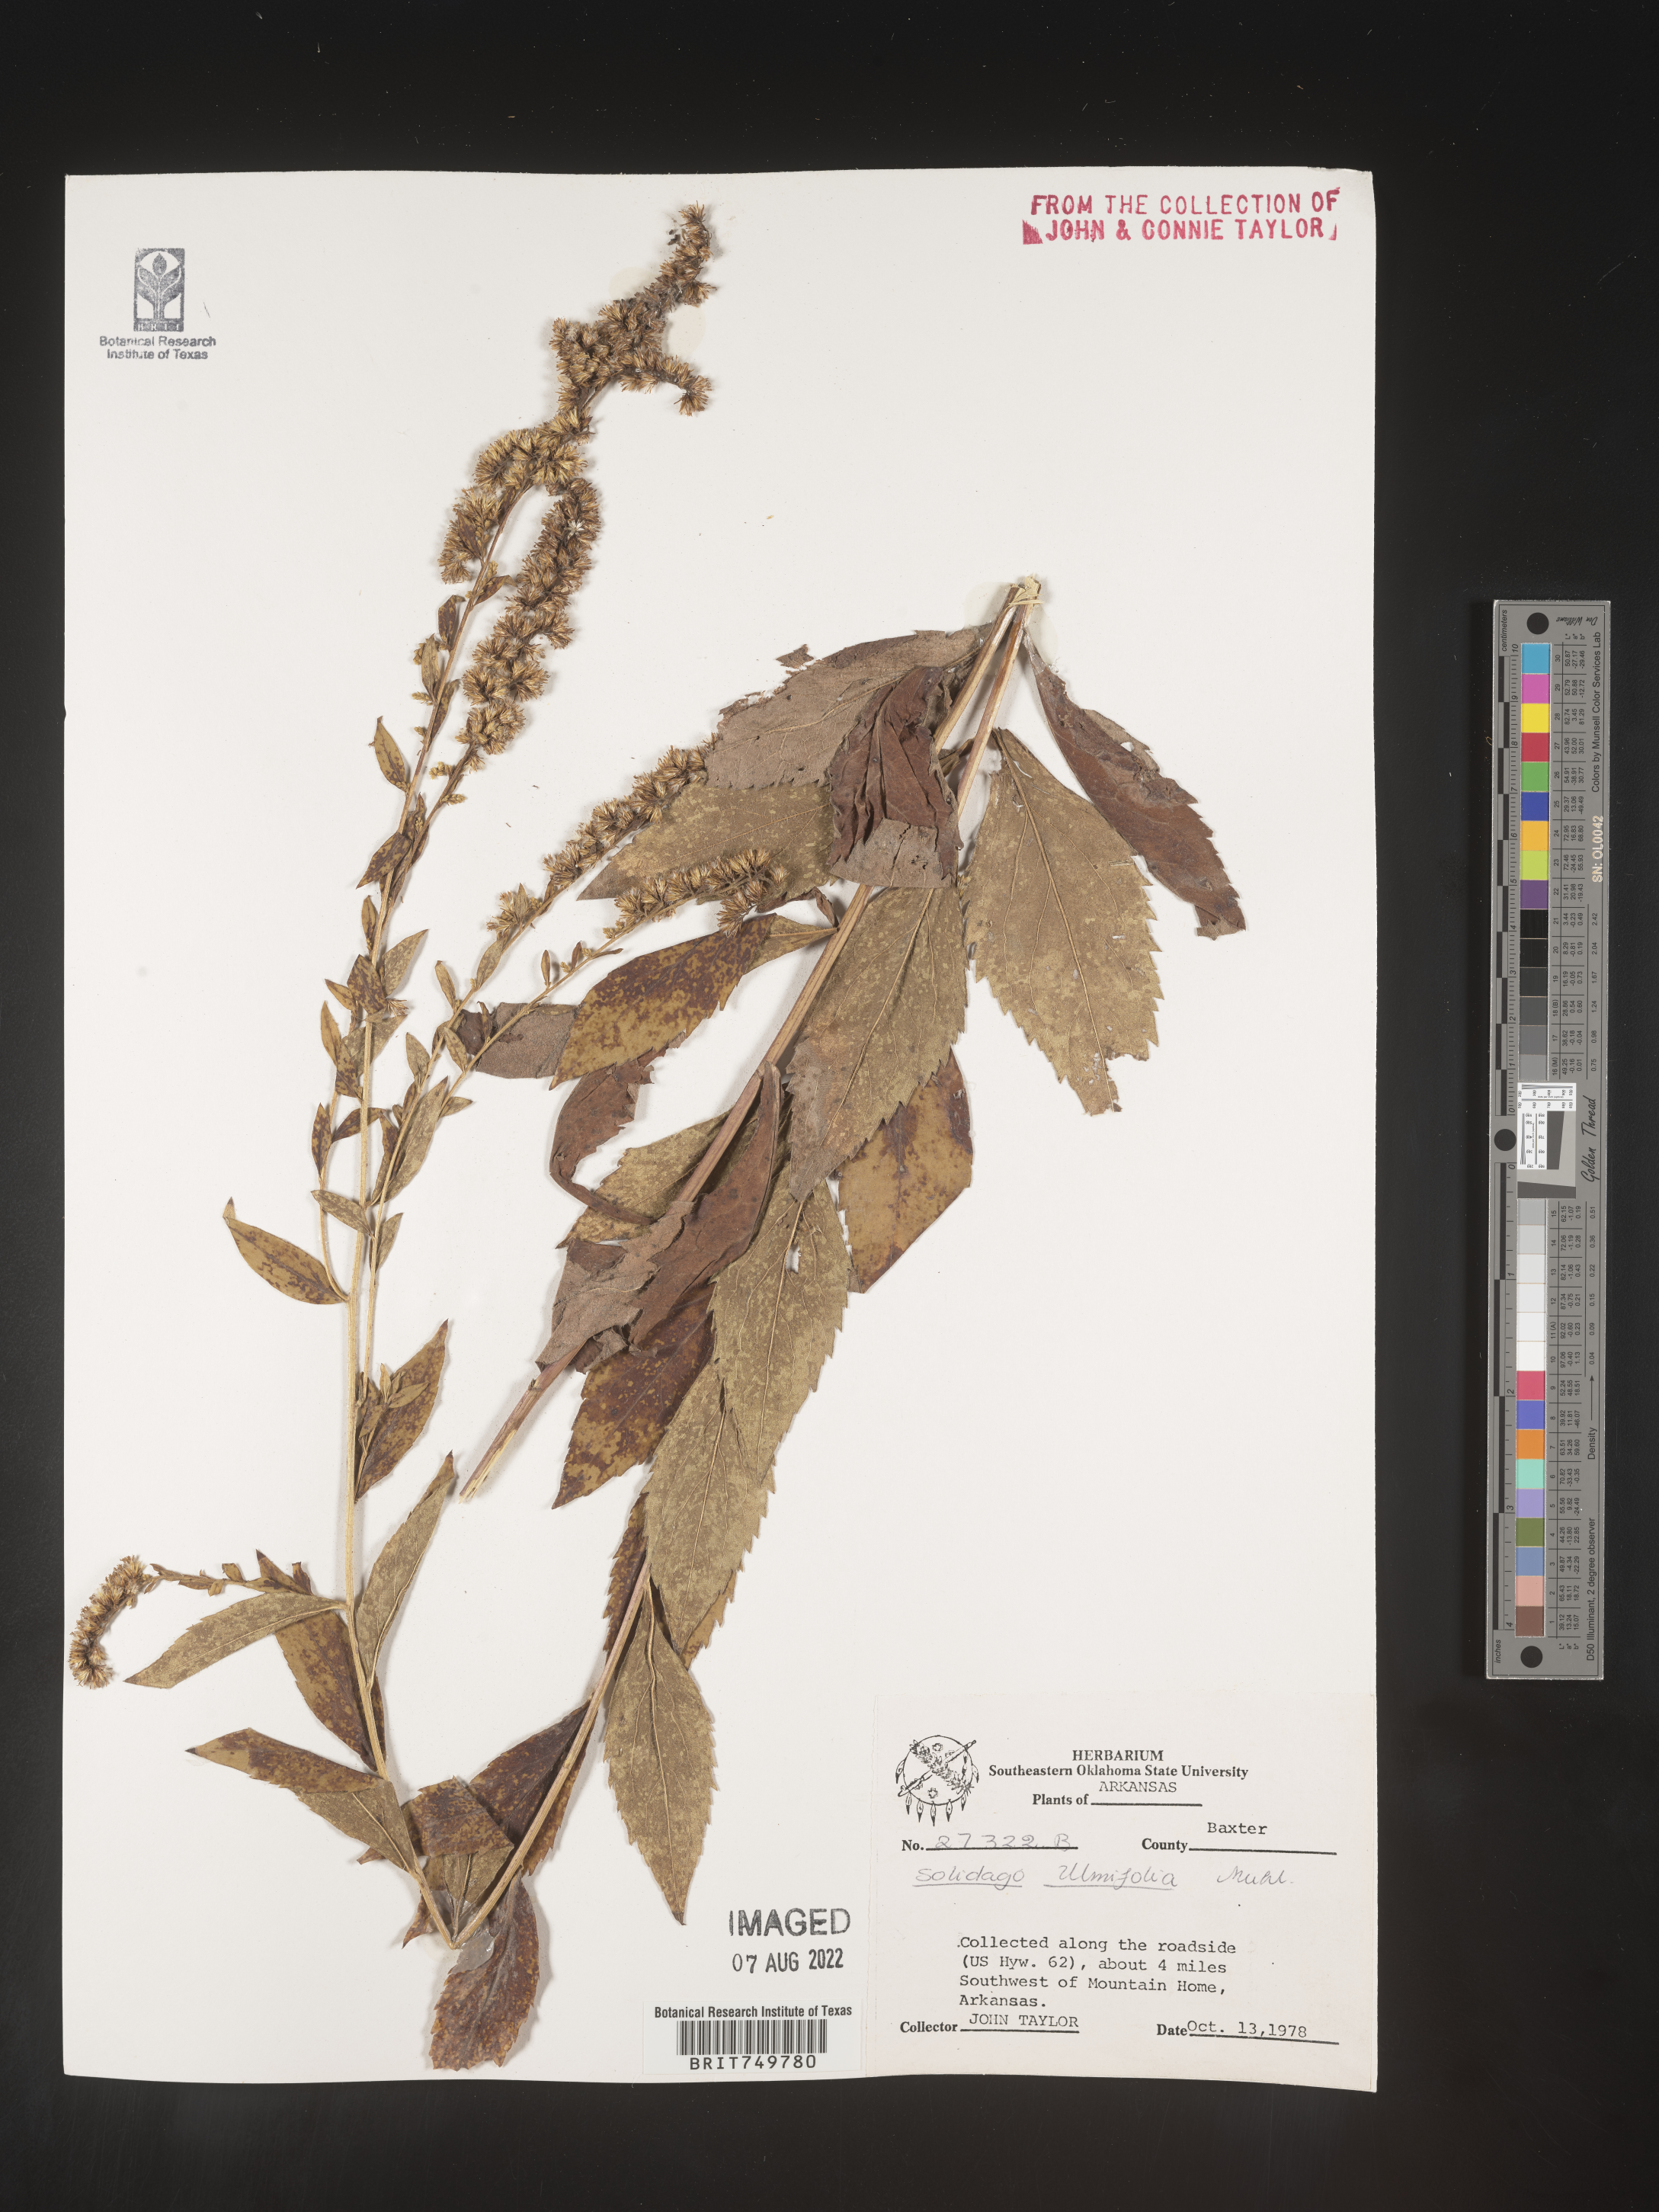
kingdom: Plantae
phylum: Tracheophyta
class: Magnoliopsida
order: Asterales
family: Asteraceae
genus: Solidago
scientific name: Solidago ulmifolia
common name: Elm-leaf goldenrod
